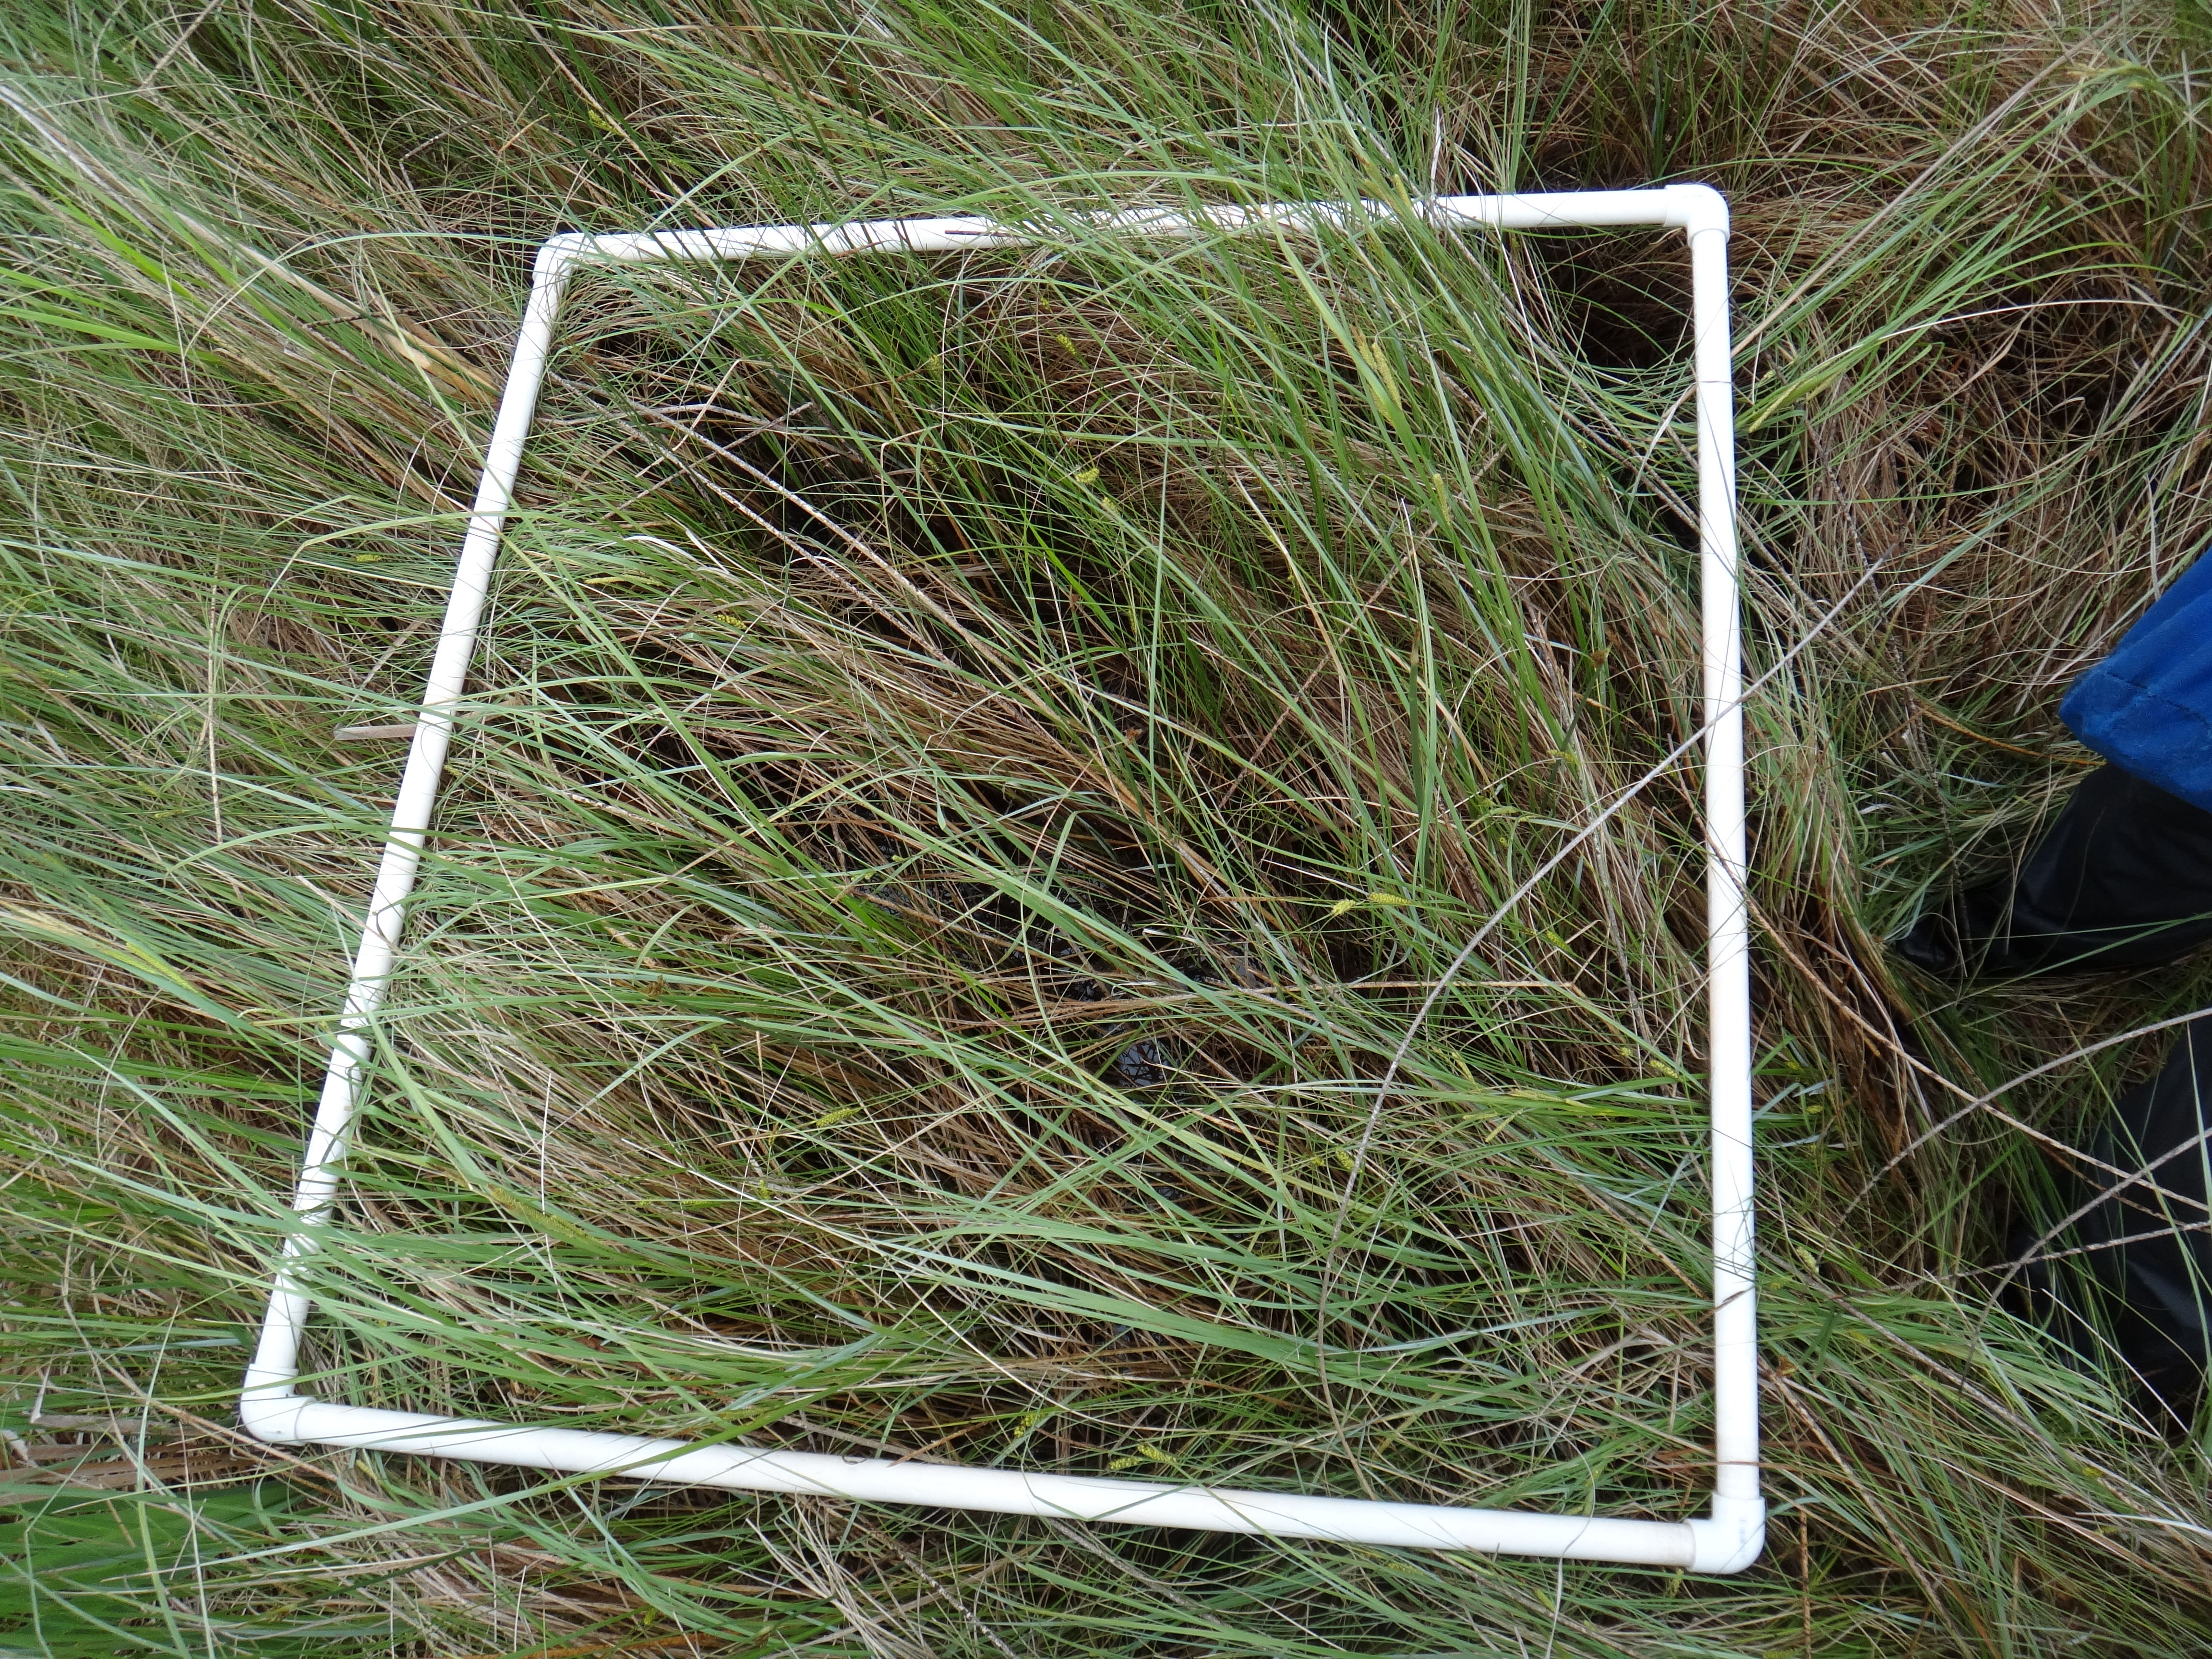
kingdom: Plantae
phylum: Tracheophyta
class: Magnoliopsida
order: Ericales
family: Primulaceae
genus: Lysimachia
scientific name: Lysimachia thyrsiflora
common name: Tufted loosestrife
